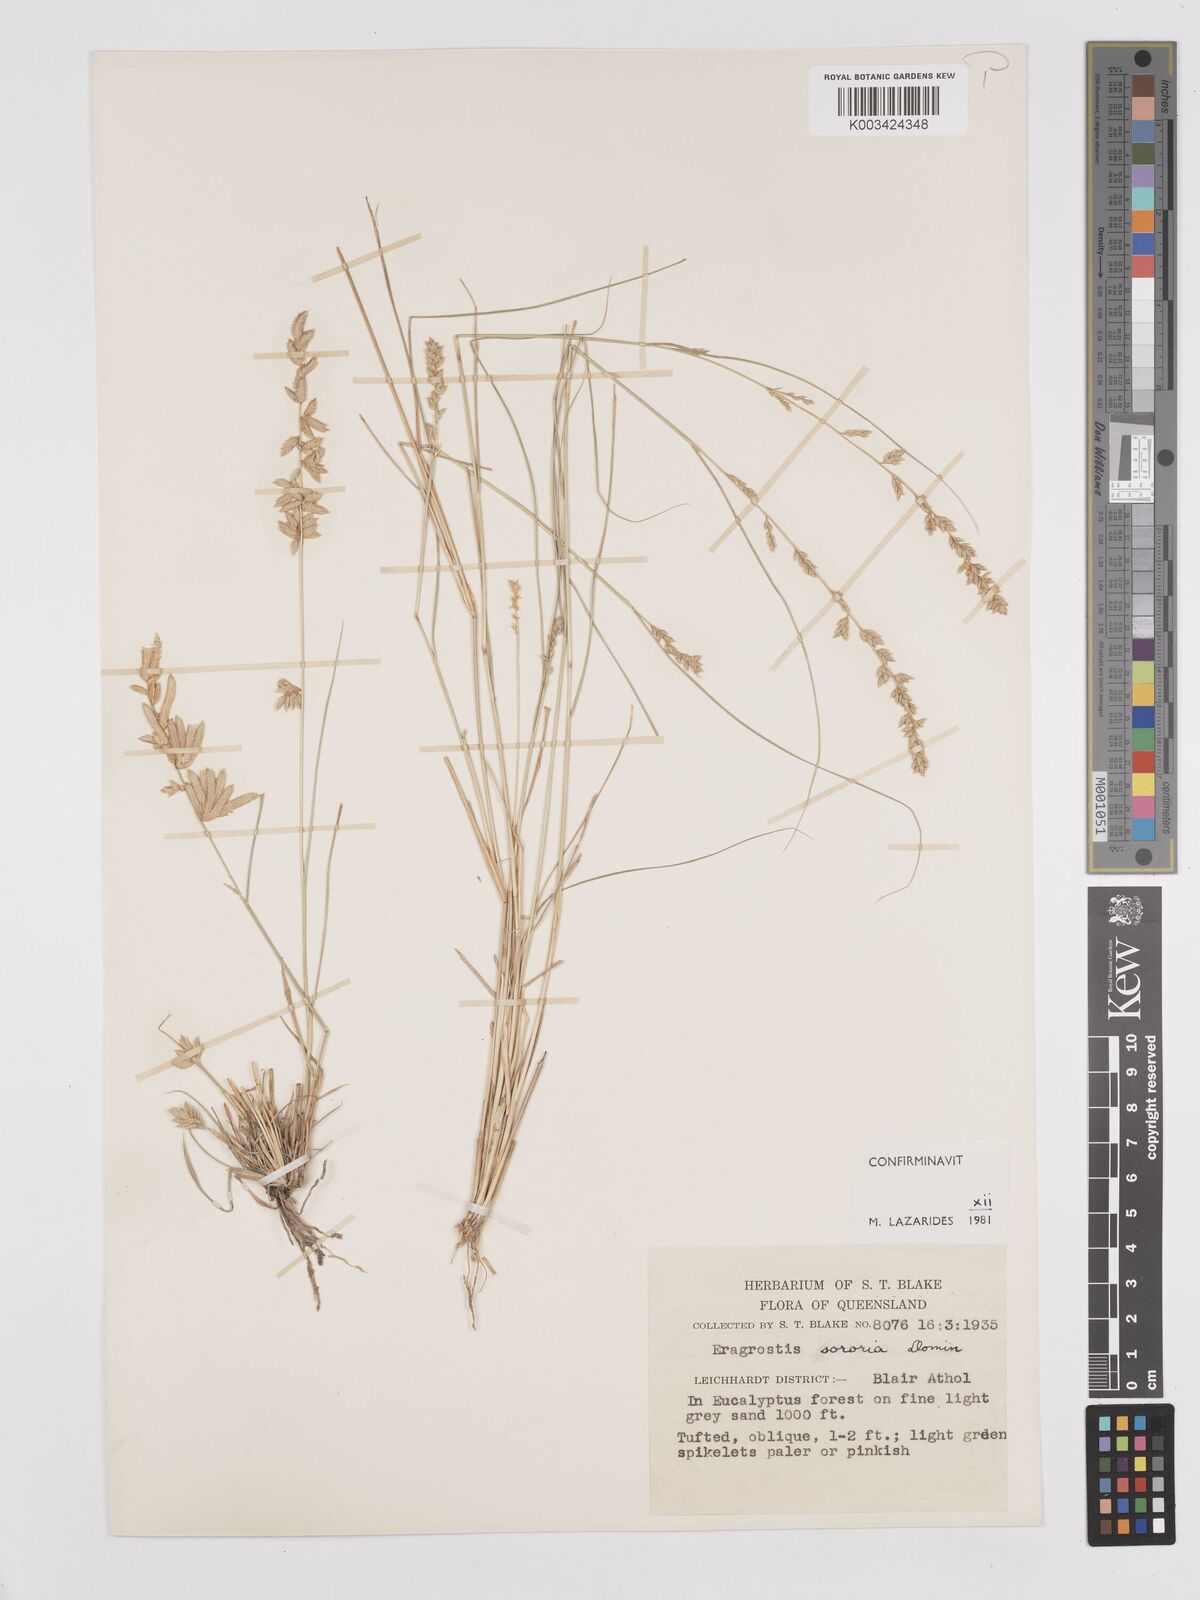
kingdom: Plantae
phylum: Tracheophyta
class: Liliopsida
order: Poales
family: Poaceae
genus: Eragrostis
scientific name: Eragrostis sororia
